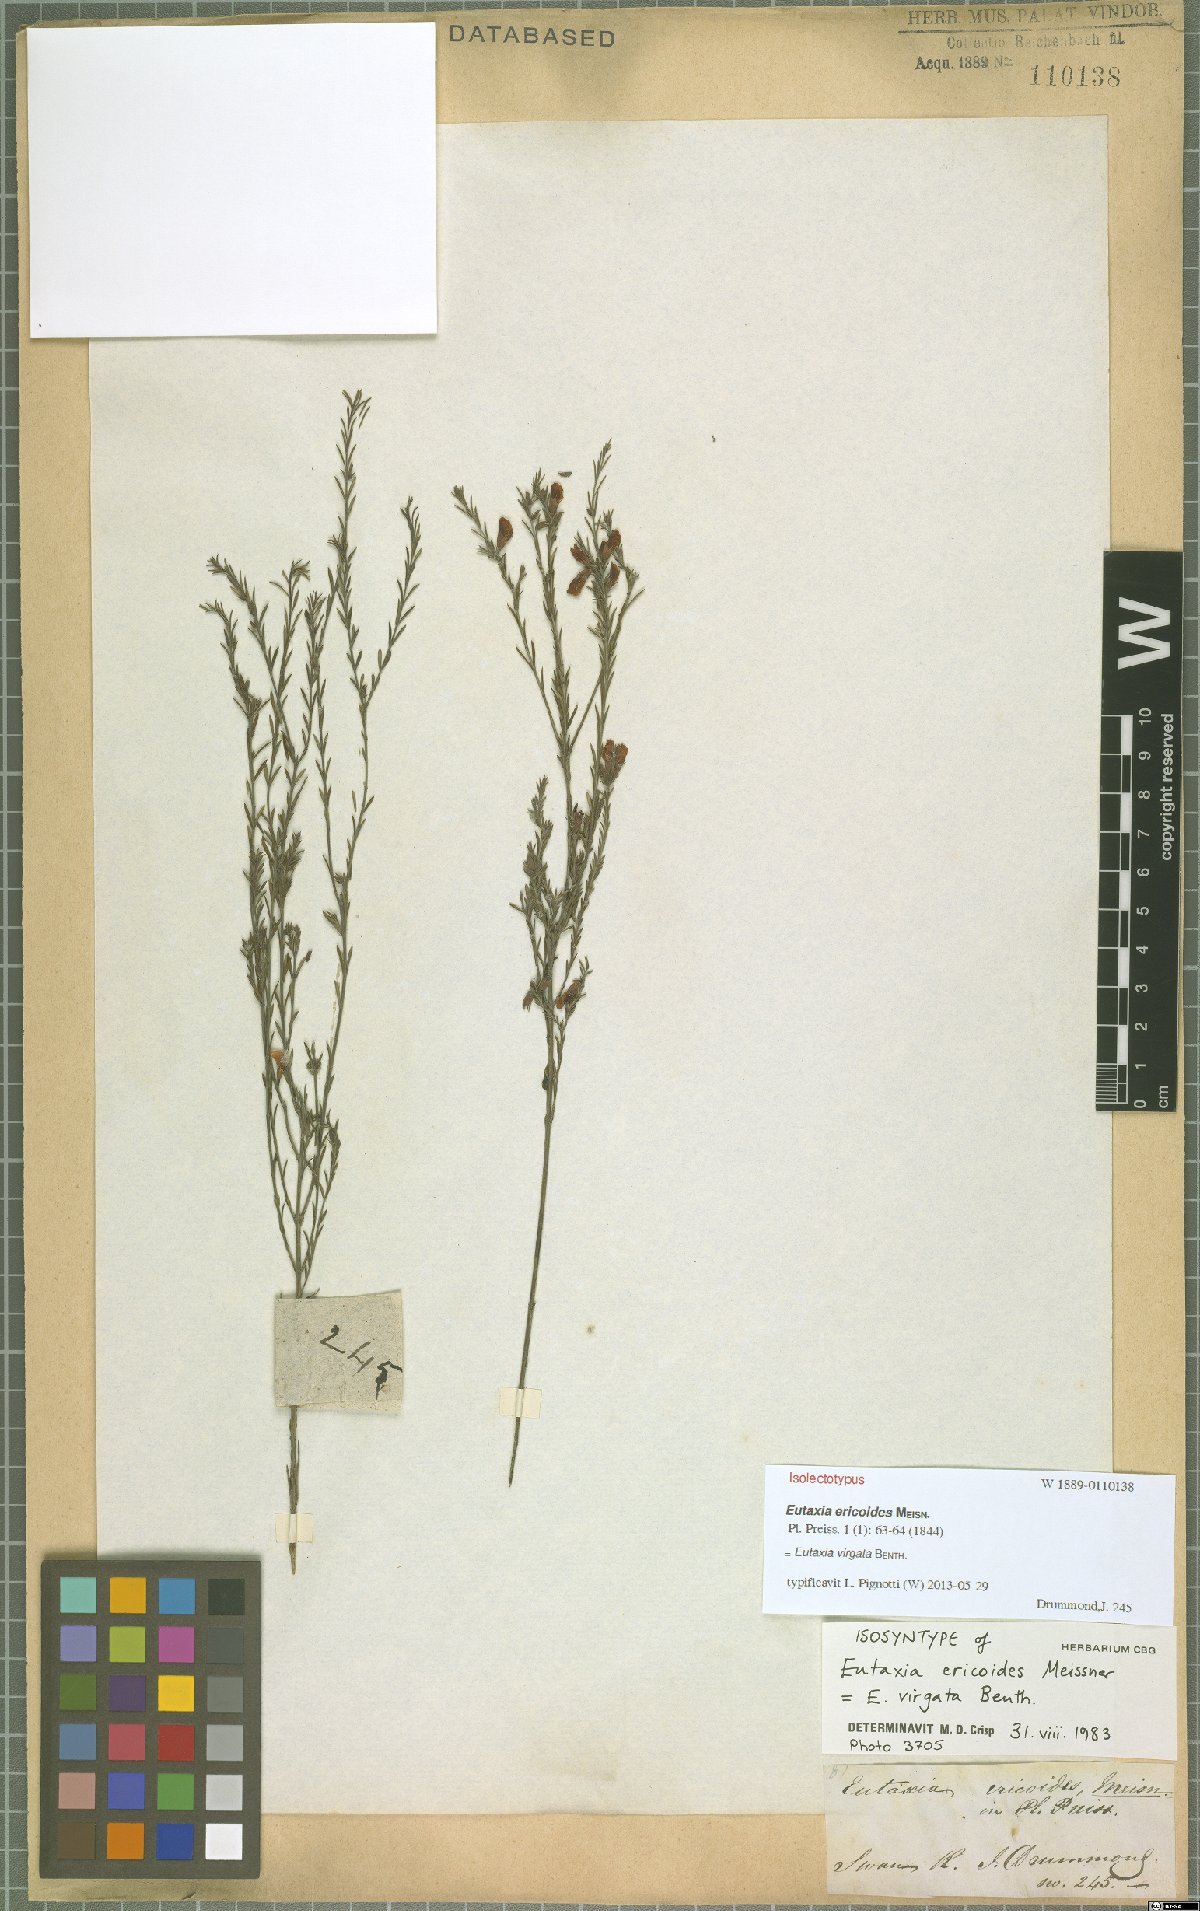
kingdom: Plantae
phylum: Tracheophyta
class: Magnoliopsida
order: Fabales
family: Fabaceae
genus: Eutaxia
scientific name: Eutaxia virgata
